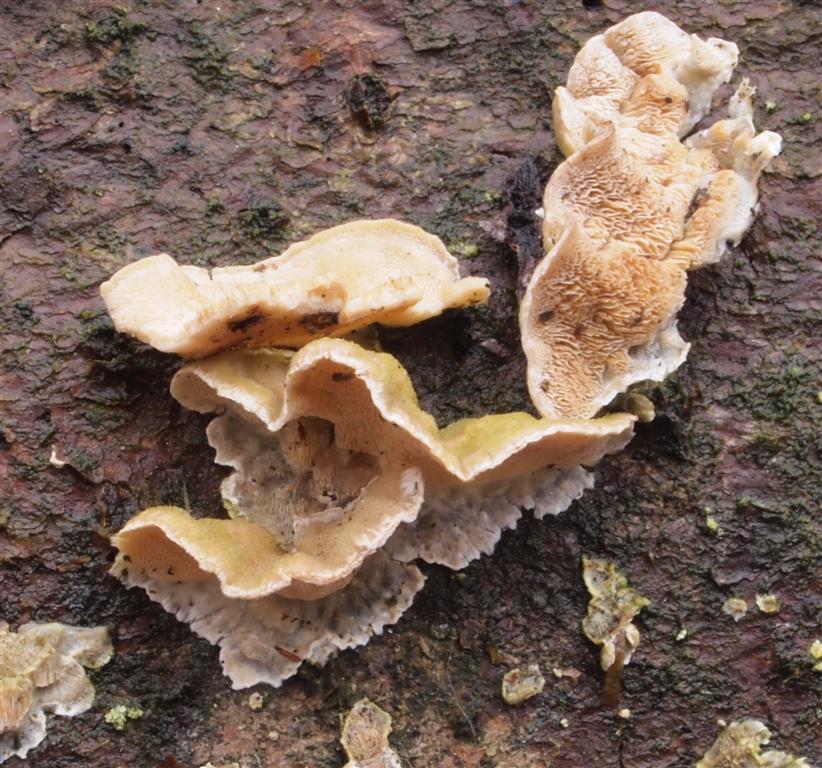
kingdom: Fungi
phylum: Basidiomycota
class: Agaricomycetes
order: Polyporales
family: Incrustoporiaceae
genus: Skeletocutis
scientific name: Skeletocutis amorpha
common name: orange krystalporesvamp
